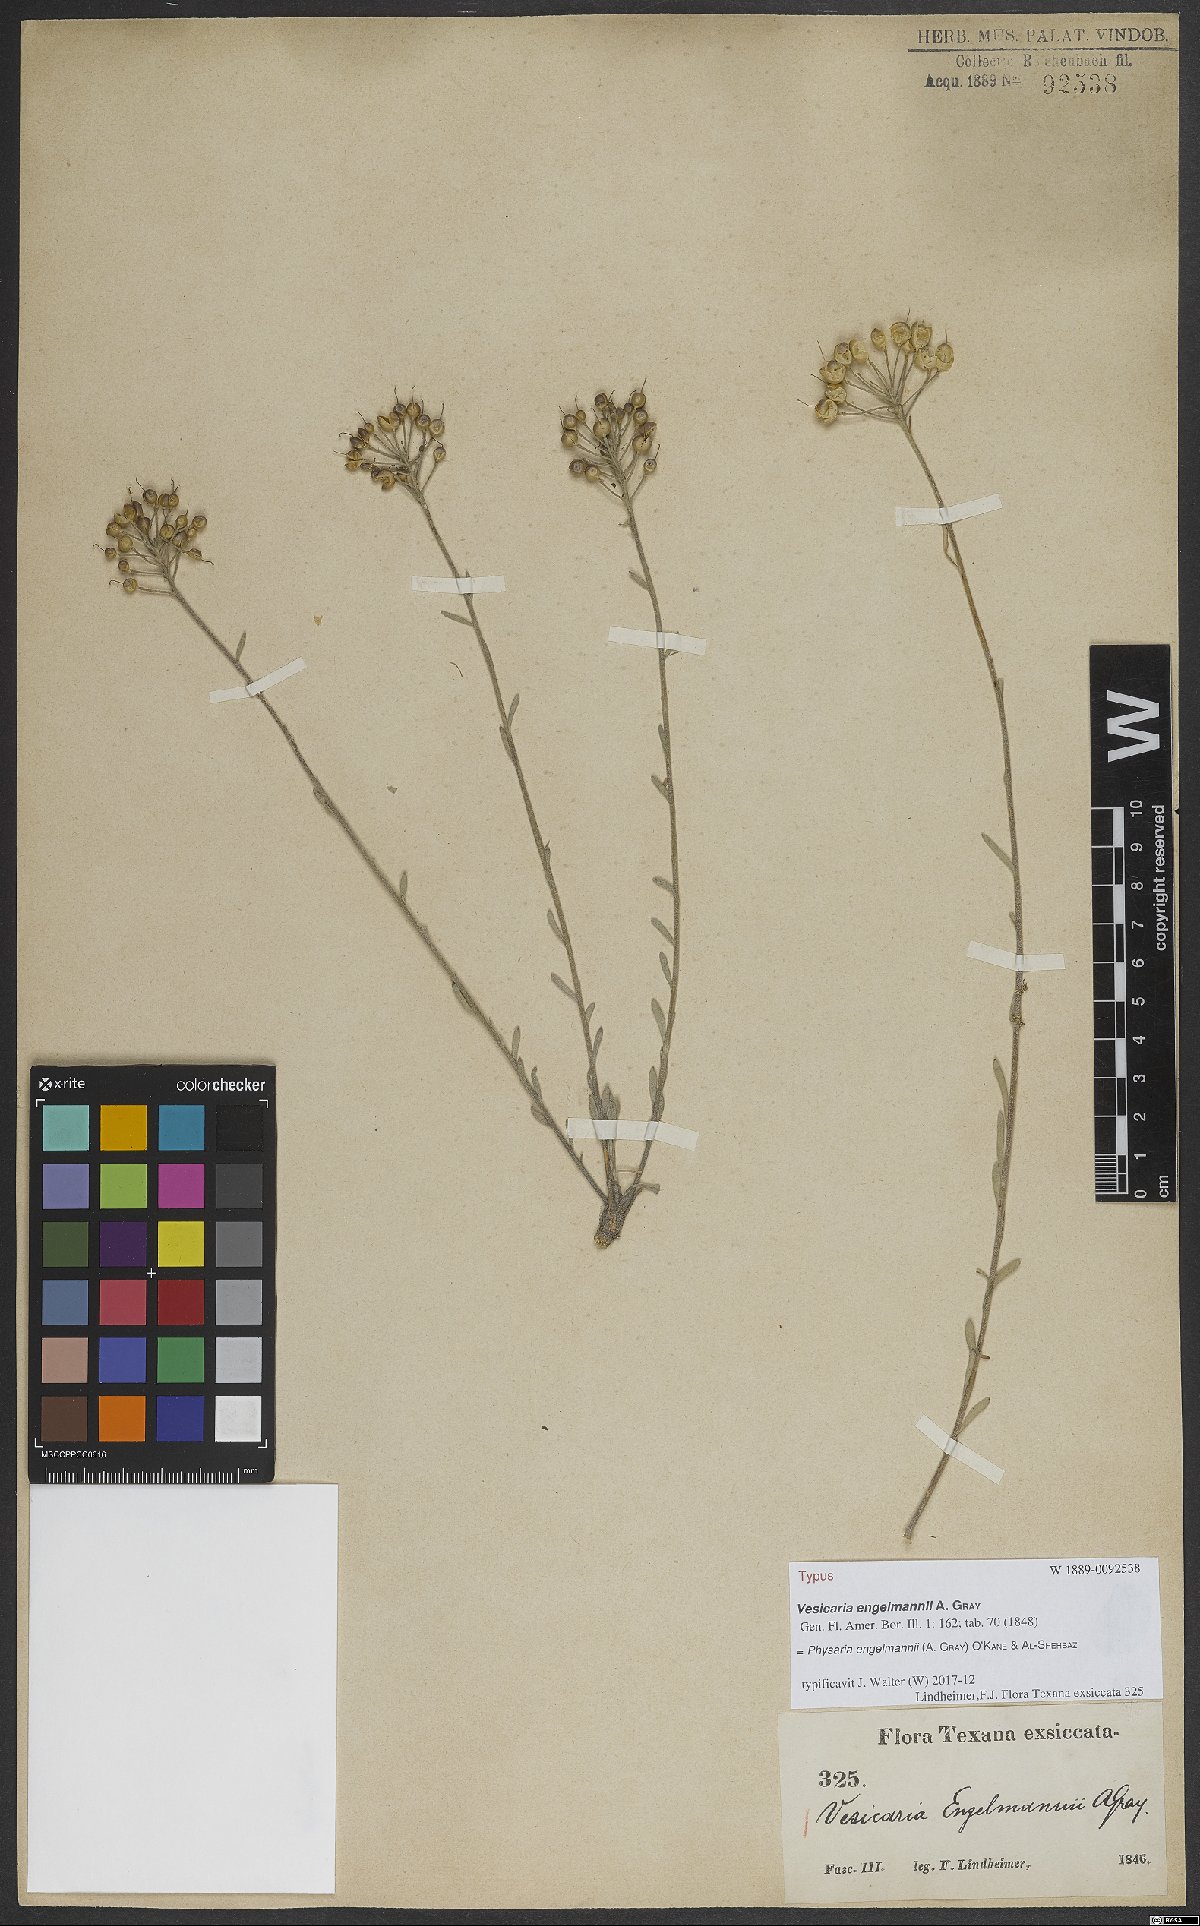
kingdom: Plantae
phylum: Tracheophyta
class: Magnoliopsida
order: Brassicales
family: Brassicaceae
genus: Physaria
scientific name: Physaria engelmannii
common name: Engelmann's bladderpod
